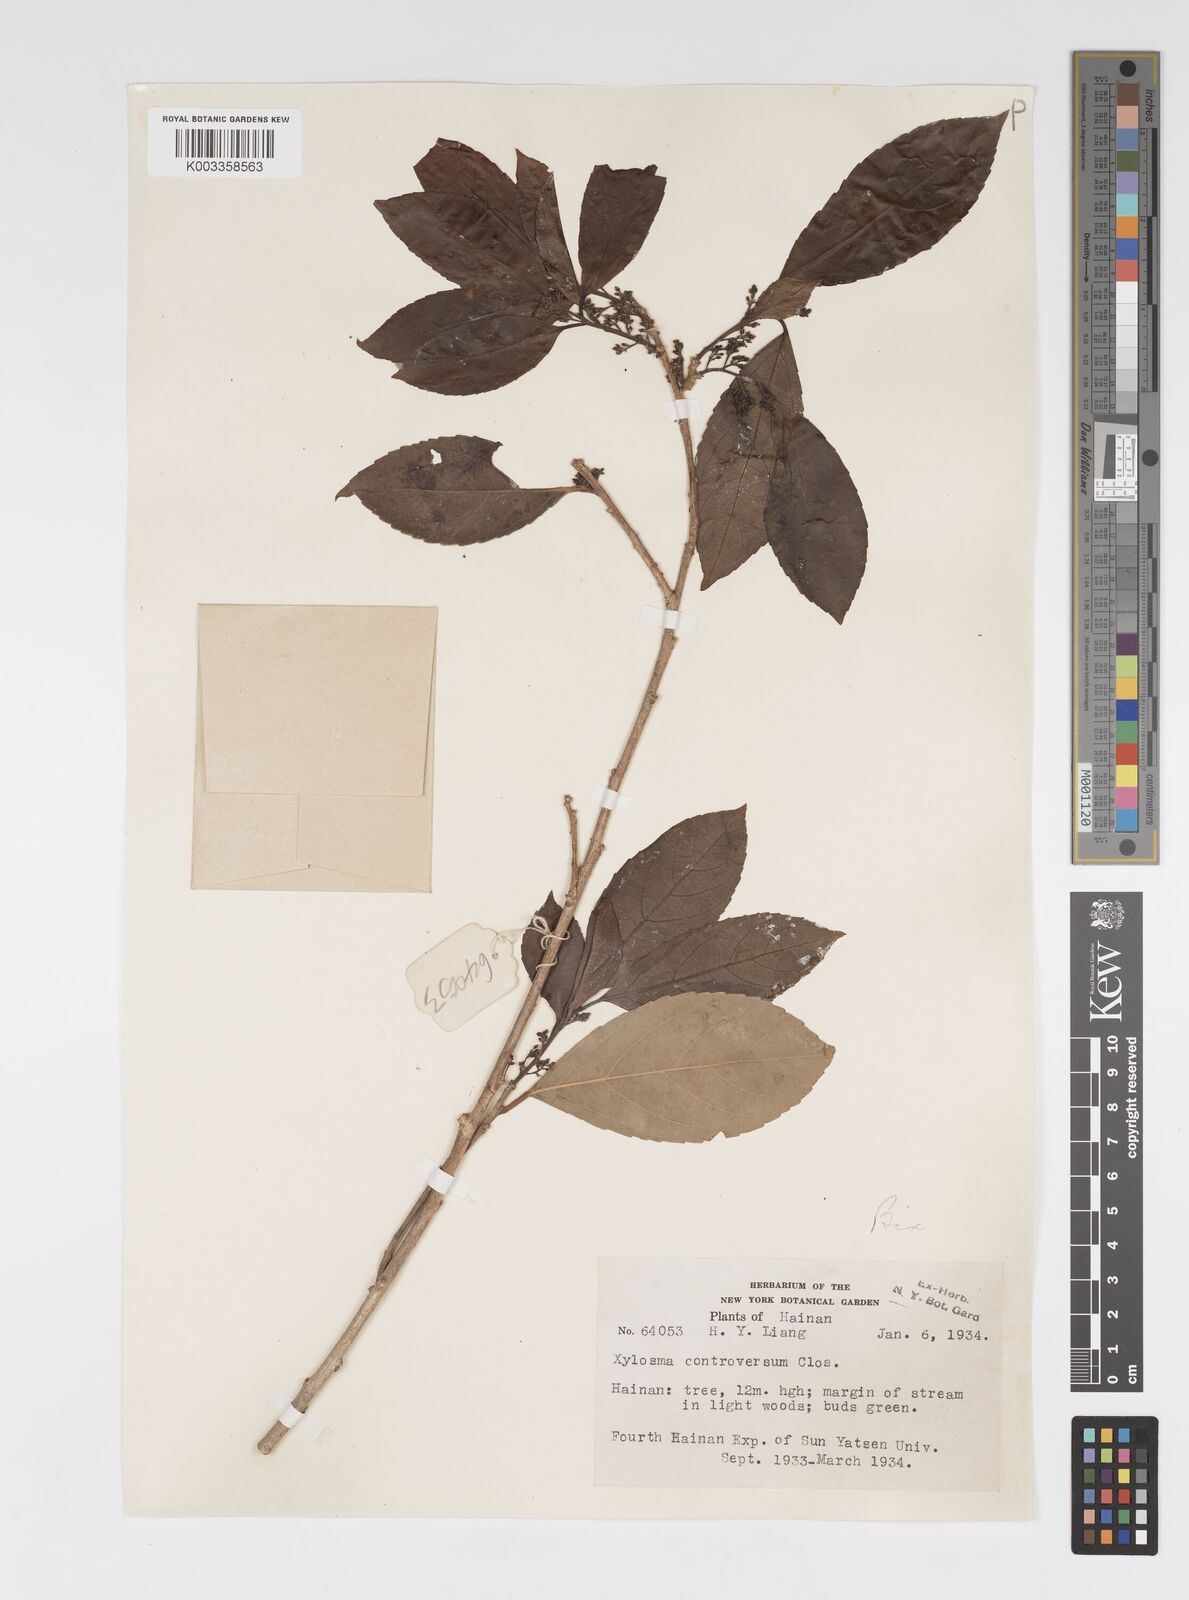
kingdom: Plantae
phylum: Tracheophyta
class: Magnoliopsida
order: Malpighiales
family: Salicaceae
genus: Xylosma
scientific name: Xylosma controversa
